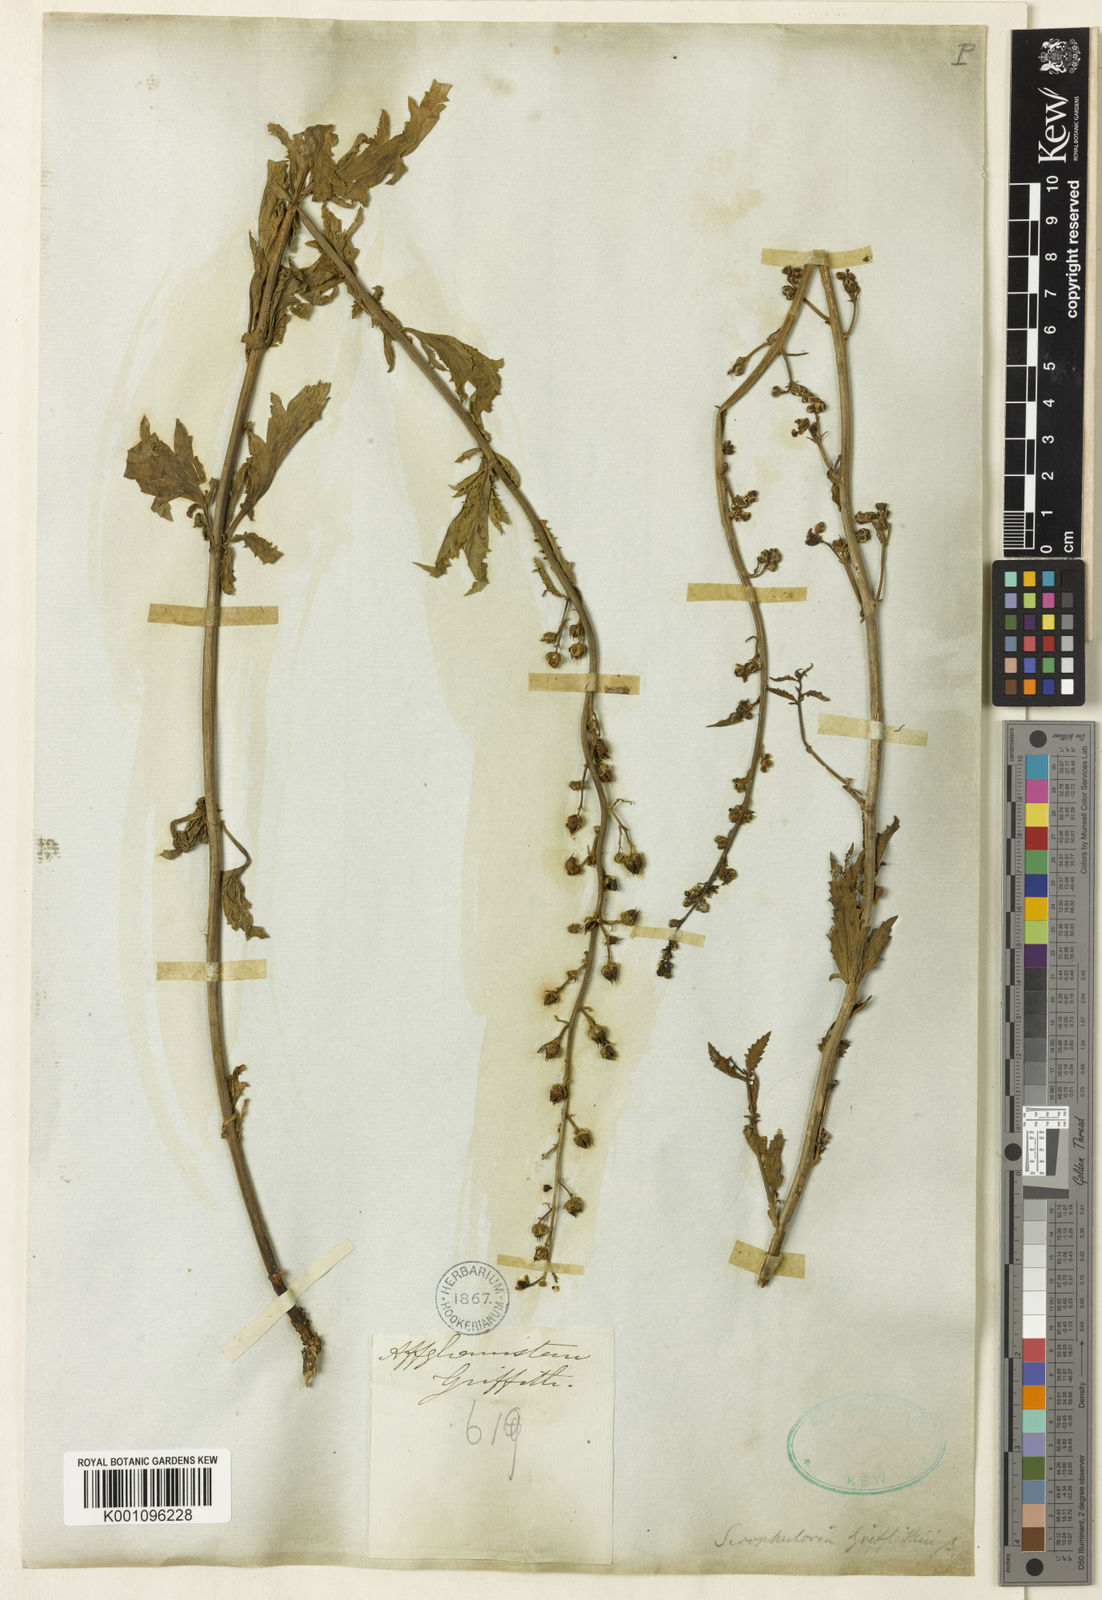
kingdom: Plantae
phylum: Tracheophyta
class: Magnoliopsida
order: Lamiales
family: Scrophulariaceae
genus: Scrophularia
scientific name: Scrophularia griffithii
